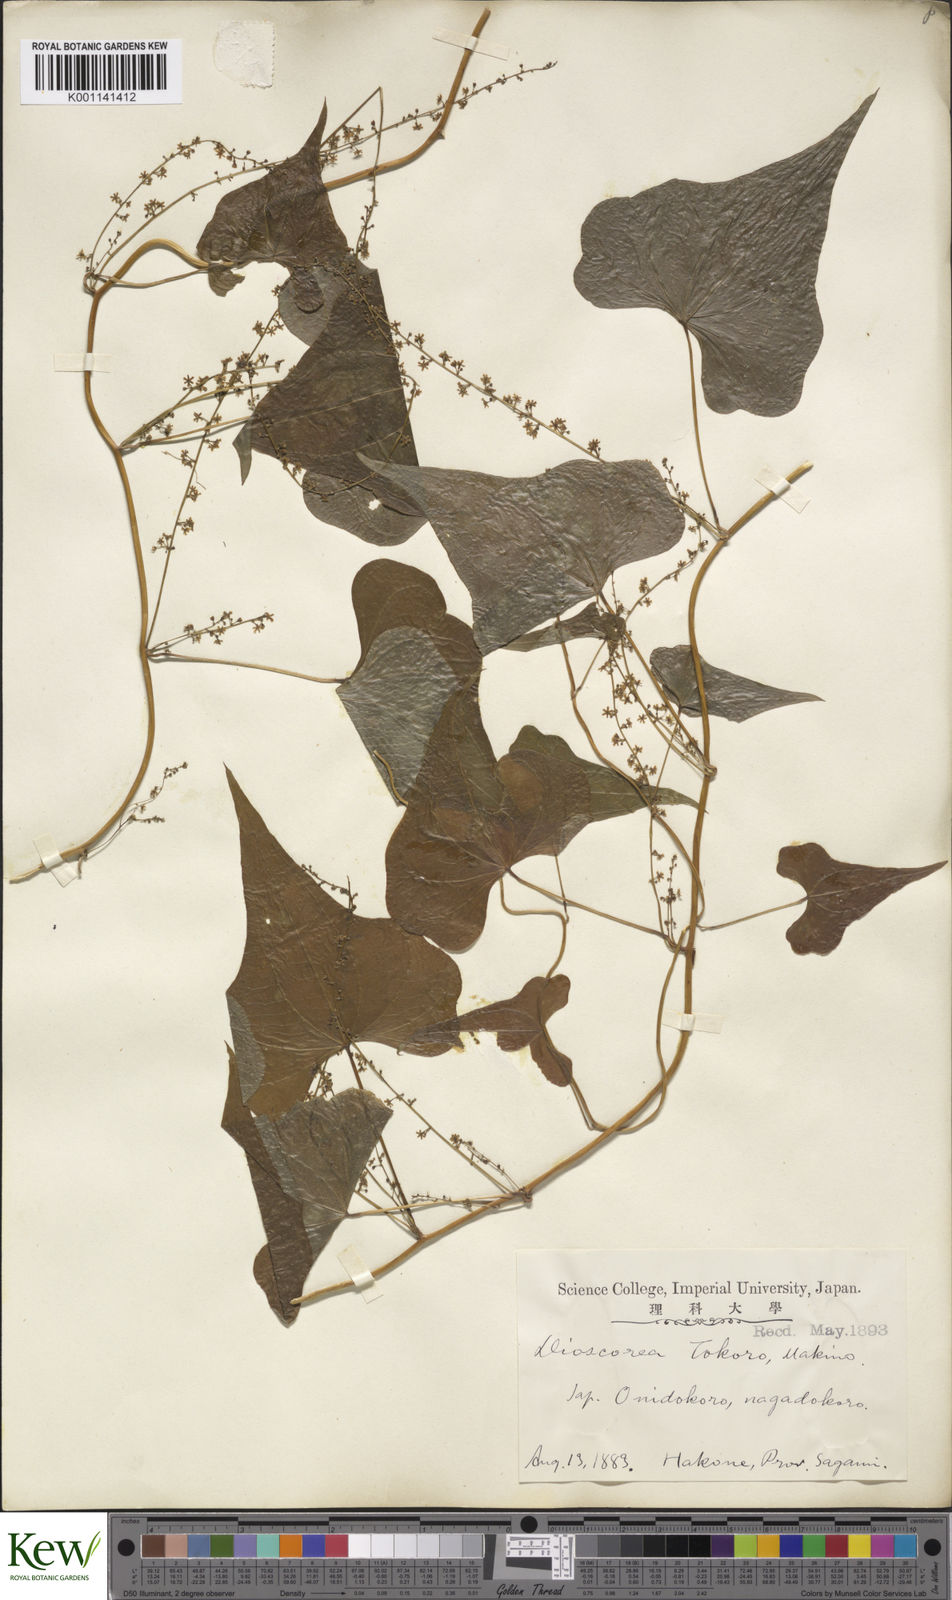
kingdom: Plantae
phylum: Tracheophyta
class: Liliopsida
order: Dioscoreales
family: Dioscoreaceae
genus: Dioscorea
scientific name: Dioscorea tokoro
